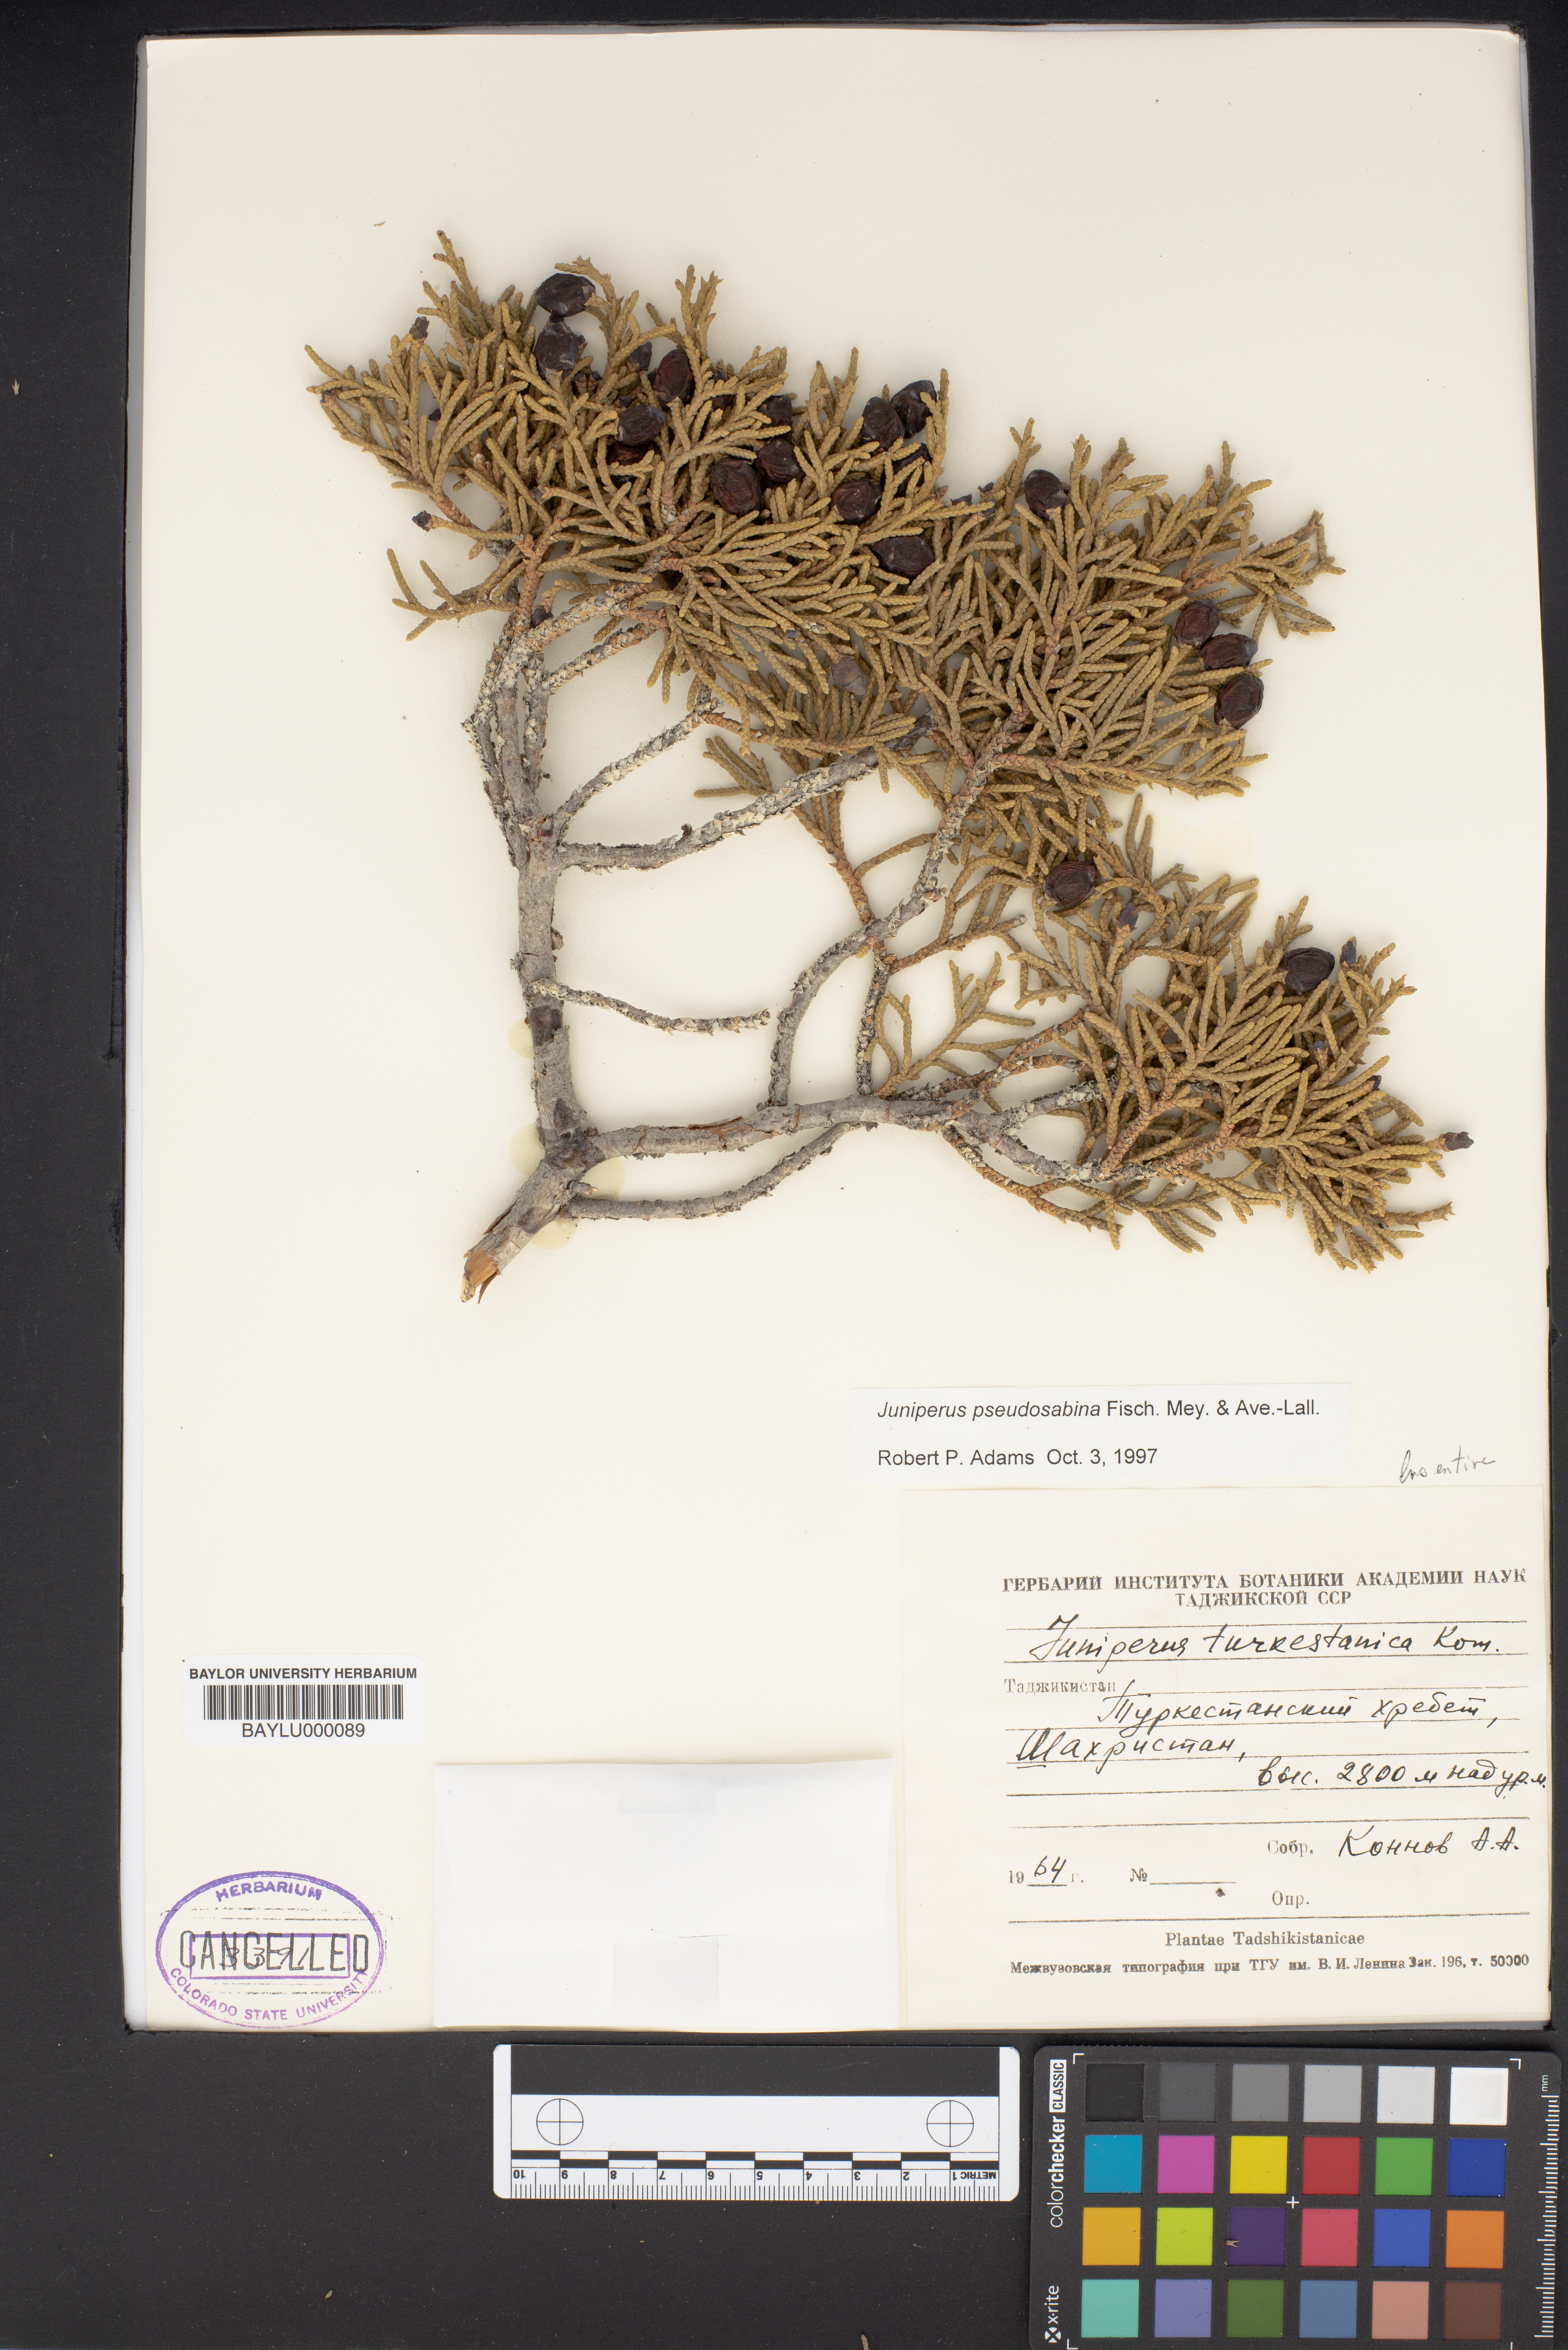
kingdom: Plantae
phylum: Tracheophyta
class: Pinopsida
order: Pinales
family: Cupressaceae
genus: Juniperus
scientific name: Juniperus pseudosabina
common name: Turkestan juniper
